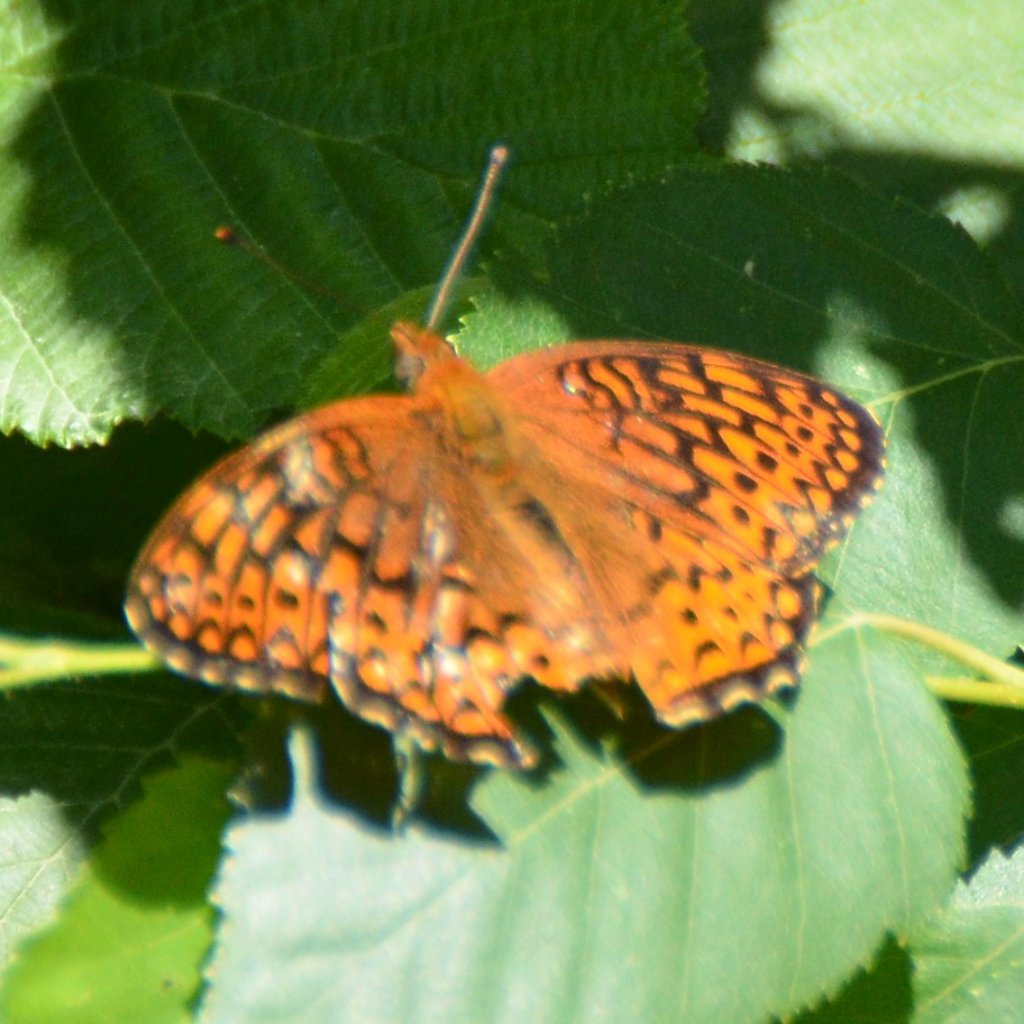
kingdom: Animalia
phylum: Arthropoda
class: Insecta
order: Lepidoptera
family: Nymphalidae
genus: Speyeria
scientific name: Speyeria atlantis
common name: Atlantis Fritillary
